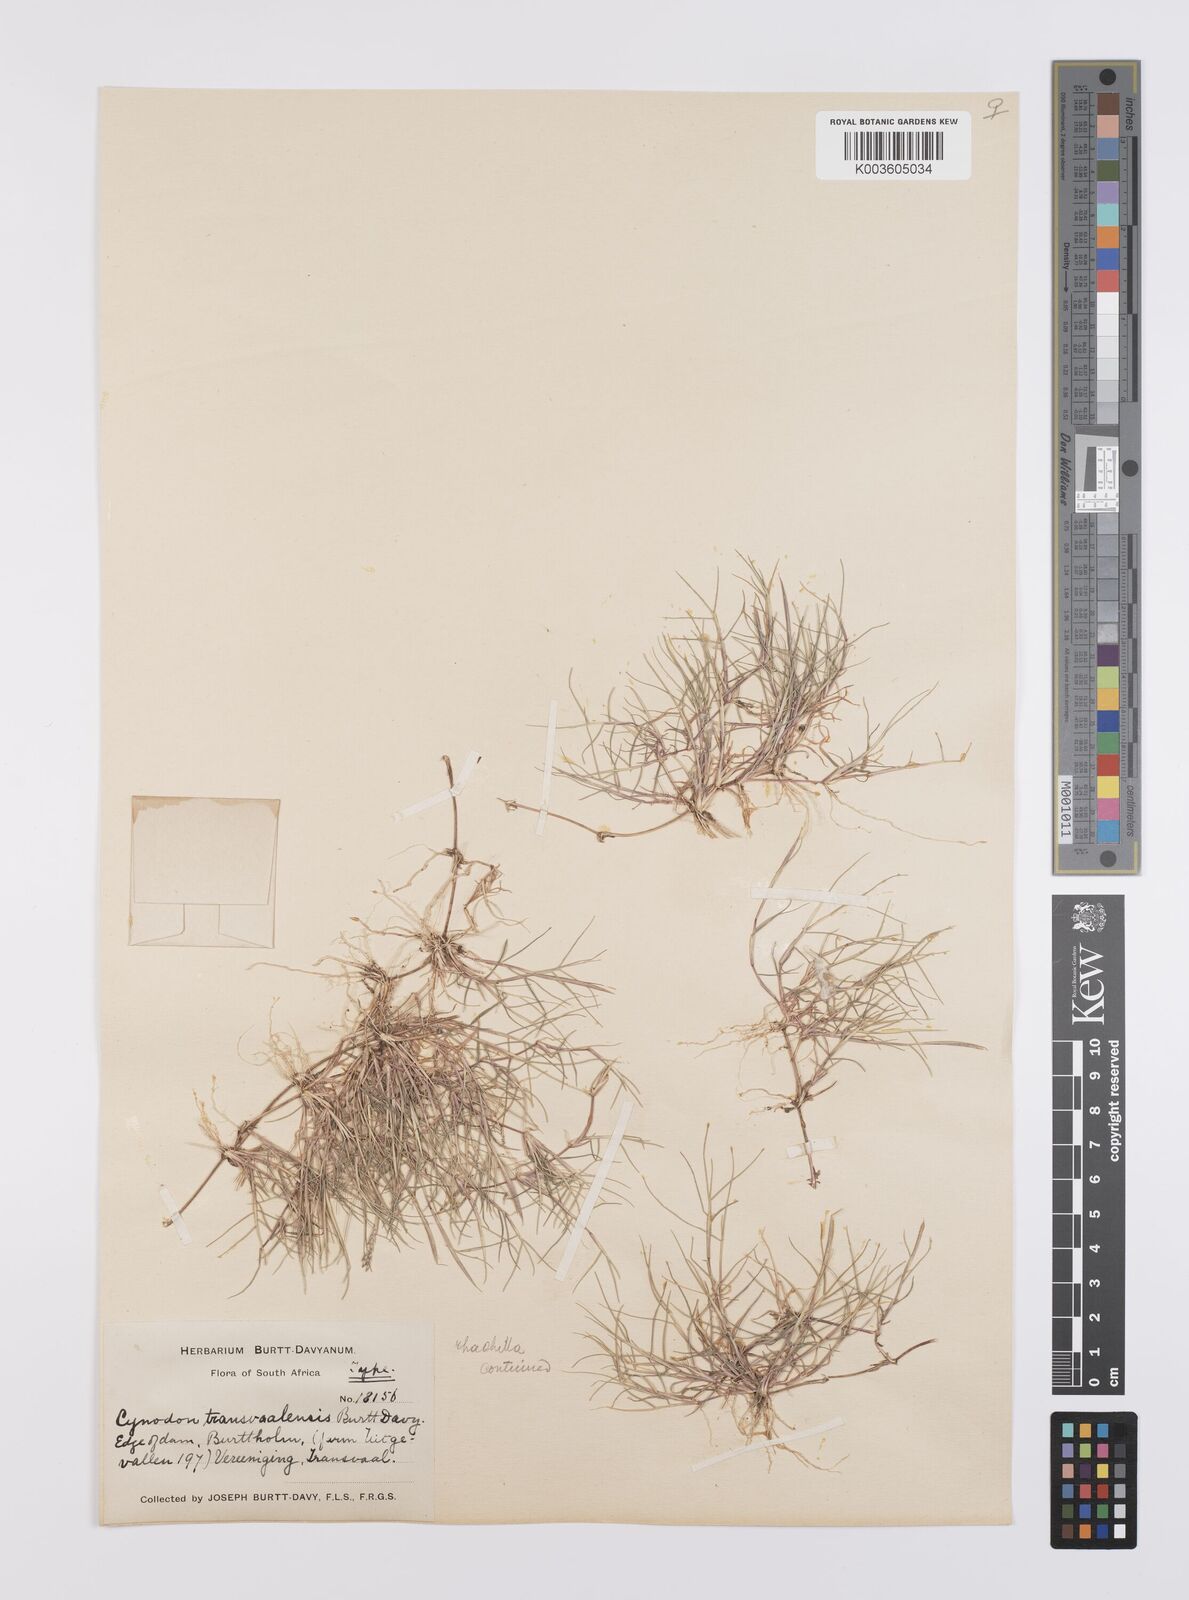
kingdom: Plantae
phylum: Tracheophyta
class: Liliopsida
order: Poales
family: Poaceae
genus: Cynodon
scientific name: Cynodon transvaalensis
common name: African bermuda grass
